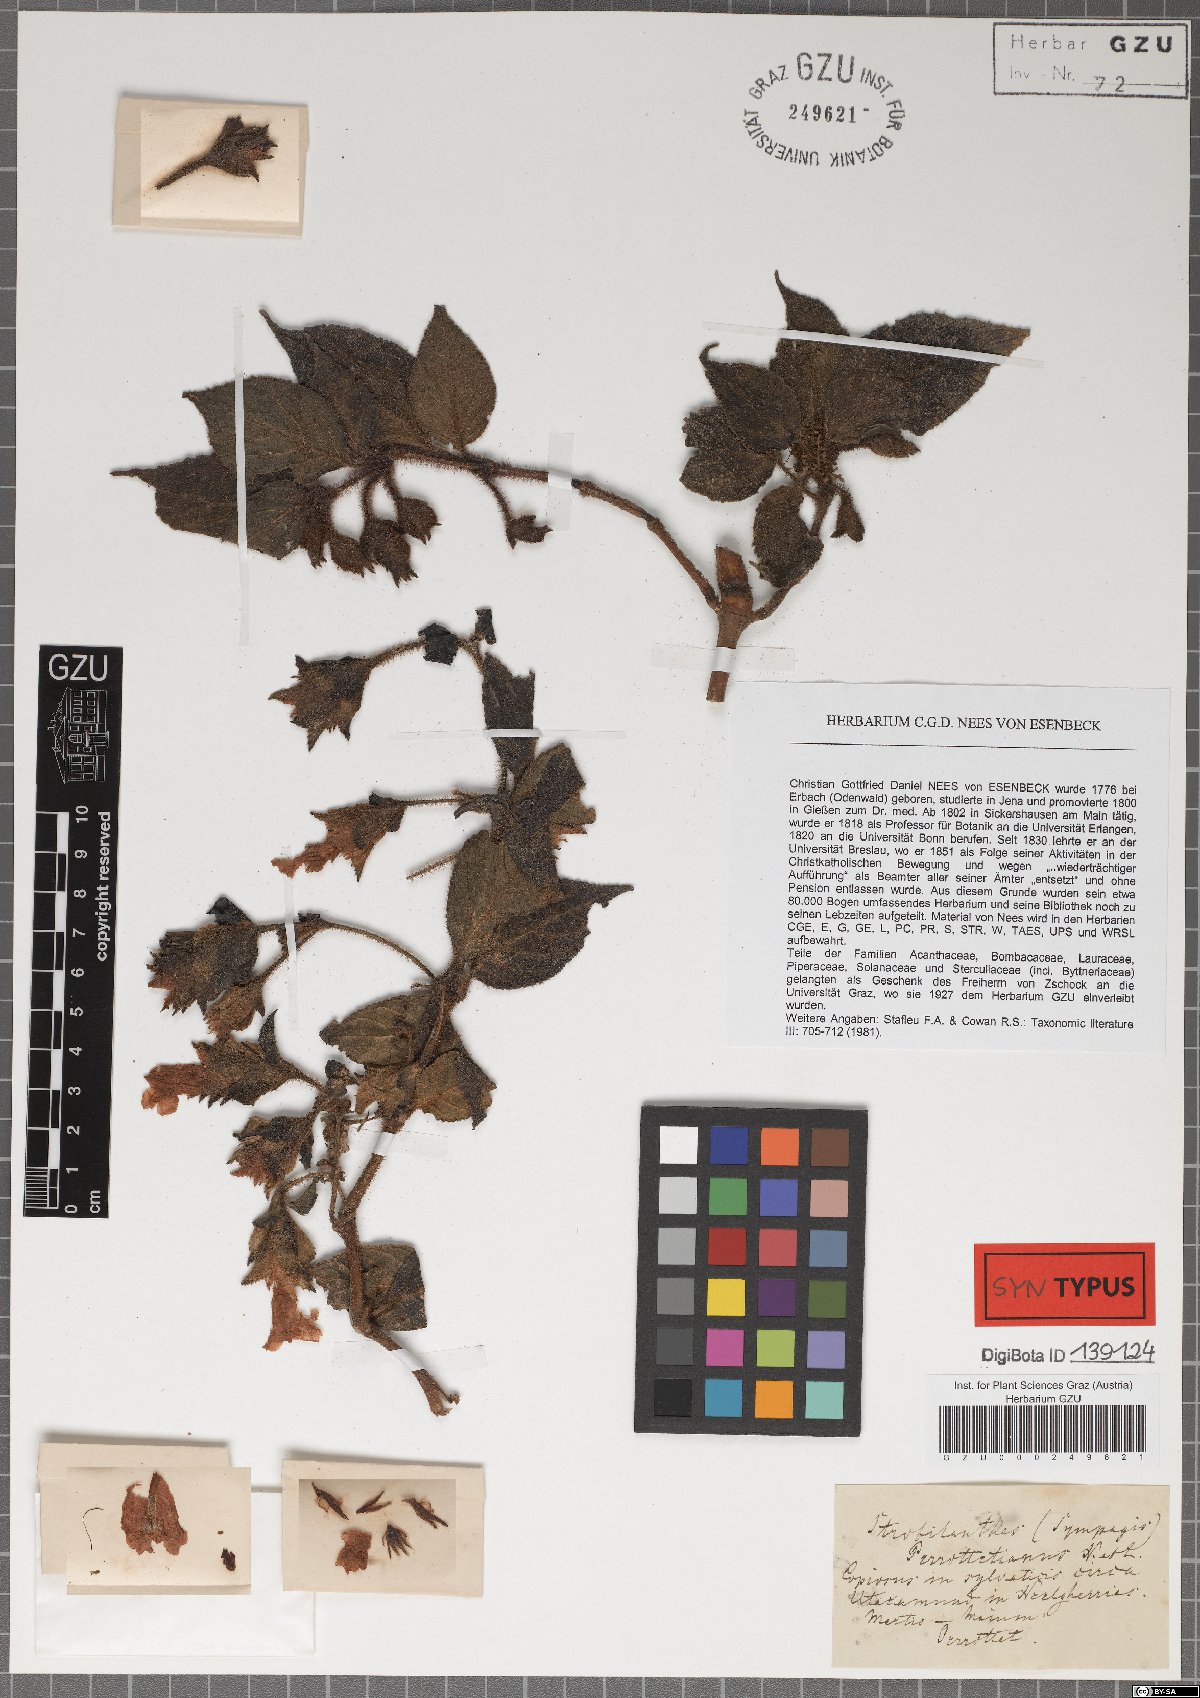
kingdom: Plantae
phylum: Tracheophyta
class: Magnoliopsida
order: Lamiales
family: Acanthaceae
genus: Strobilanthes
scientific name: Strobilanthes perrottetiana
